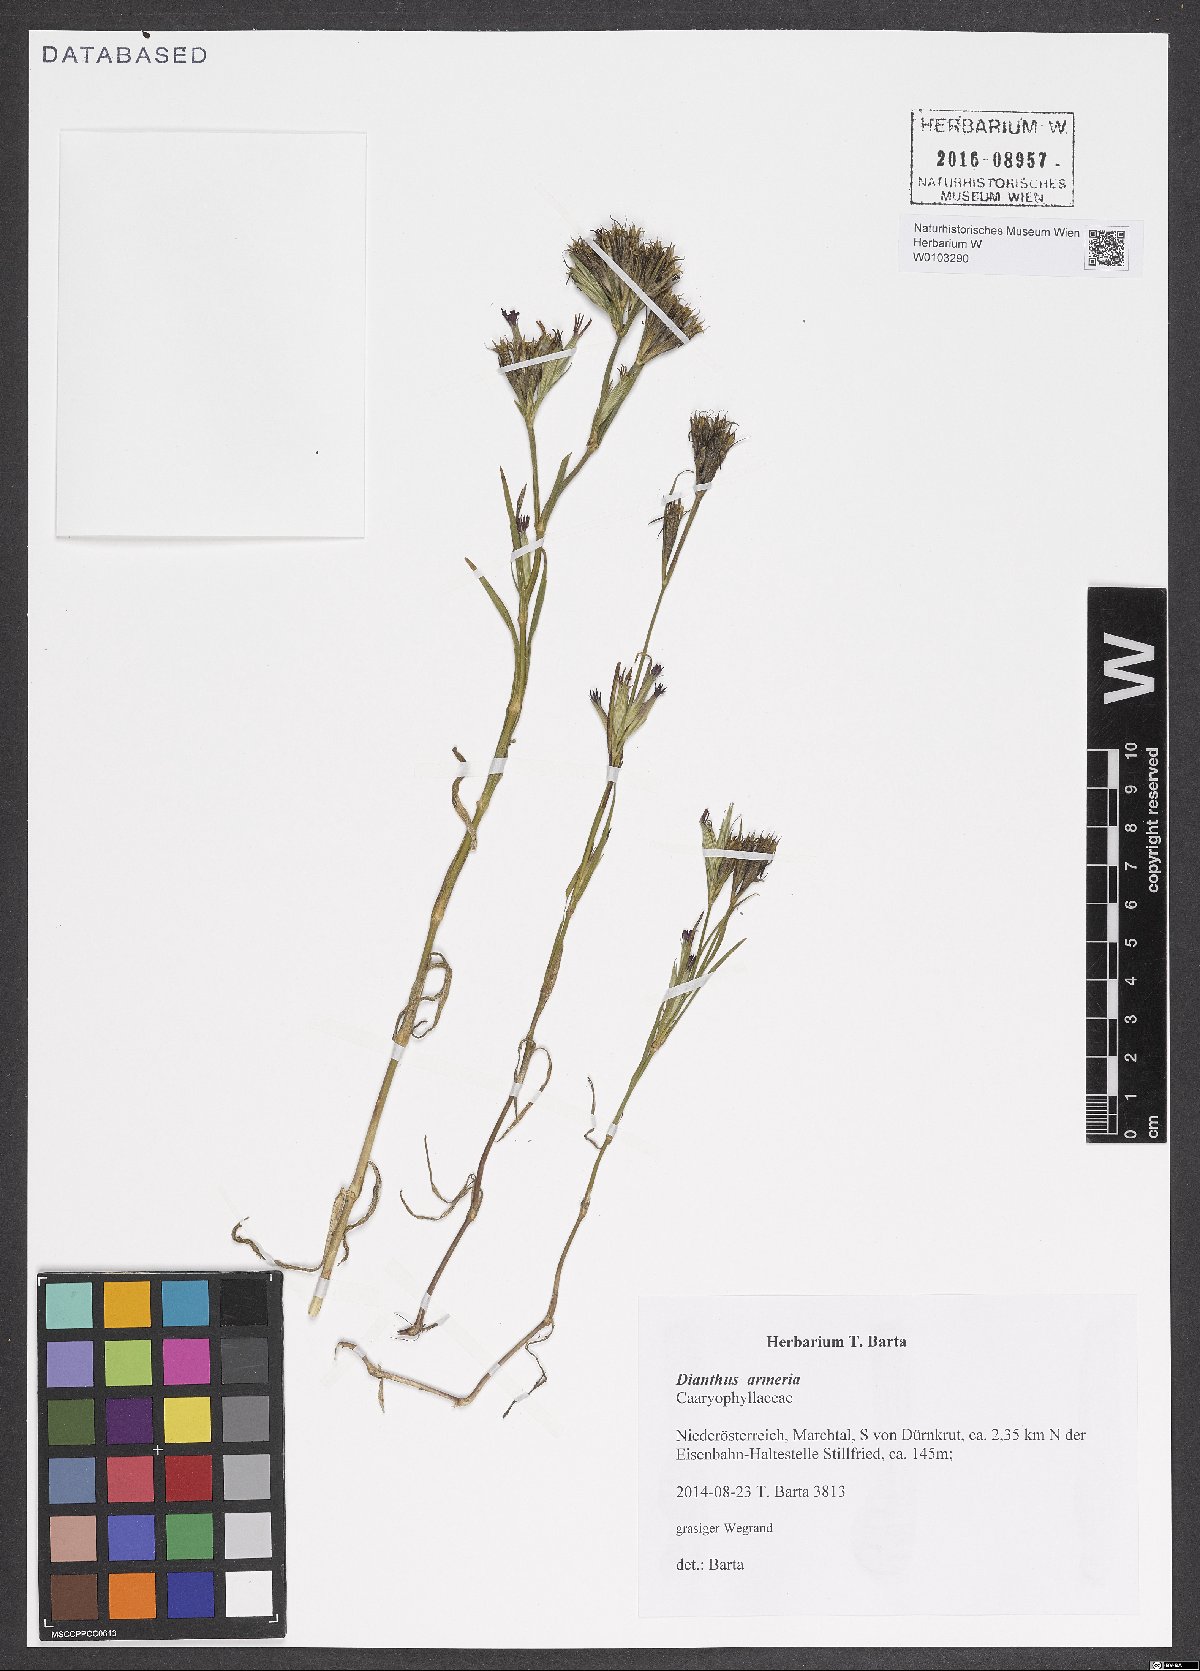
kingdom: Plantae
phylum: Tracheophyta
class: Magnoliopsida
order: Caryophyllales
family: Caryophyllaceae
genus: Dianthus
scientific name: Dianthus armeria
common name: Deptford pink
